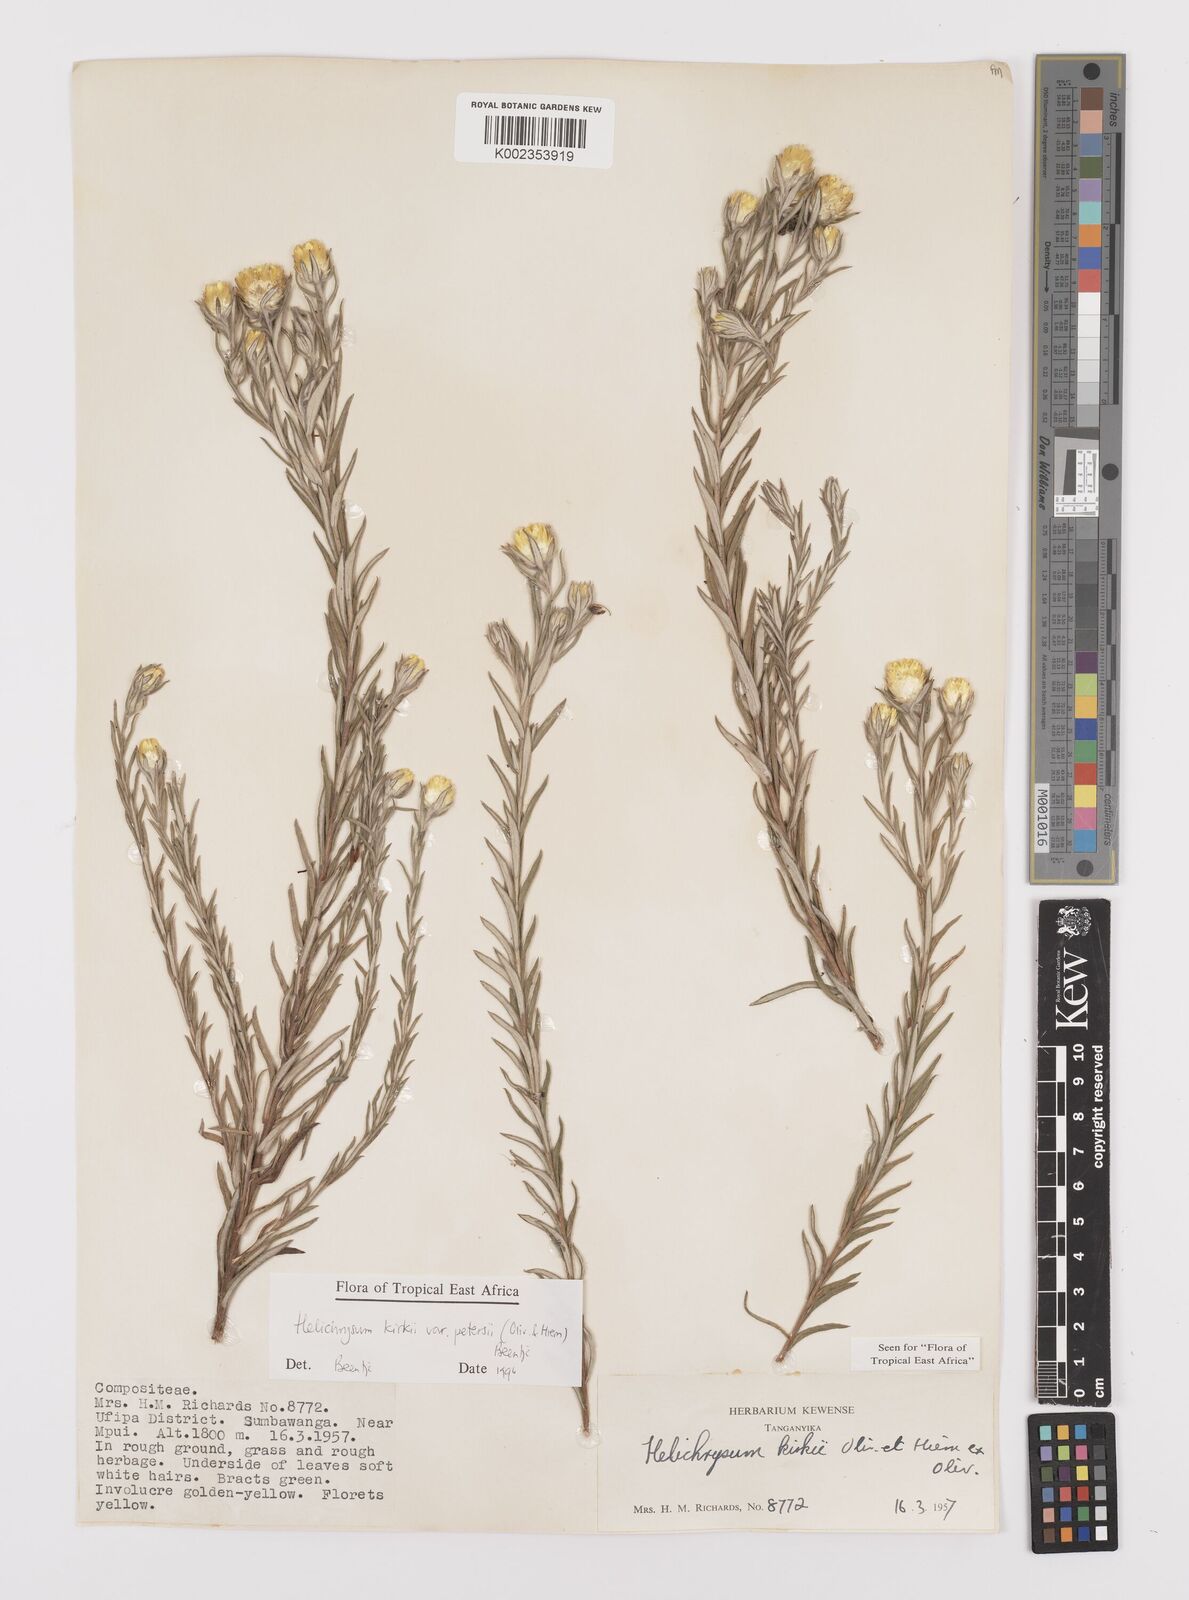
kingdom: Plantae
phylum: Tracheophyta
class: Magnoliopsida
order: Asterales
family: Asteraceae
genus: Helichrysum
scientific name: Helichrysum kirkii
